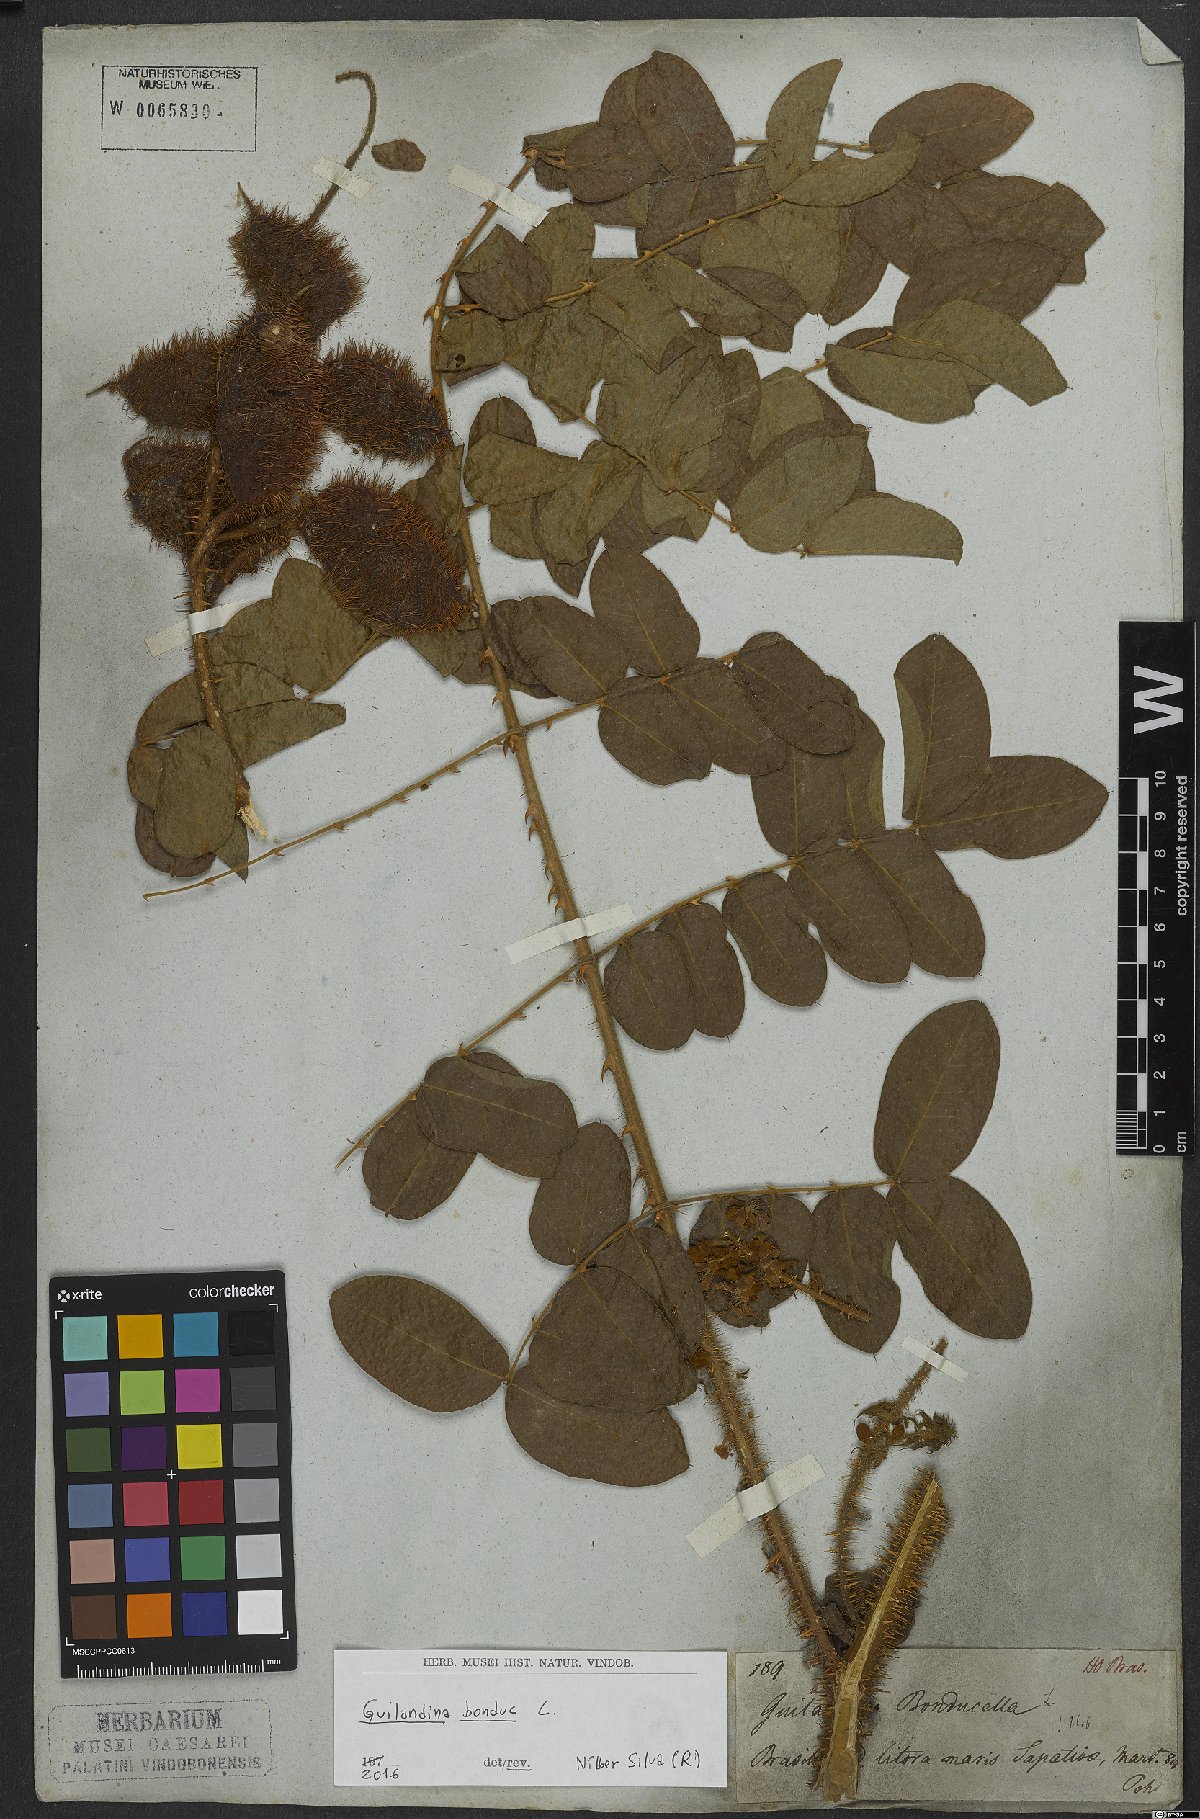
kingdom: Plantae
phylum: Tracheophyta
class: Magnoliopsida
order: Fabales
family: Fabaceae
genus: Guilandina
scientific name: Guilandina bonduc
